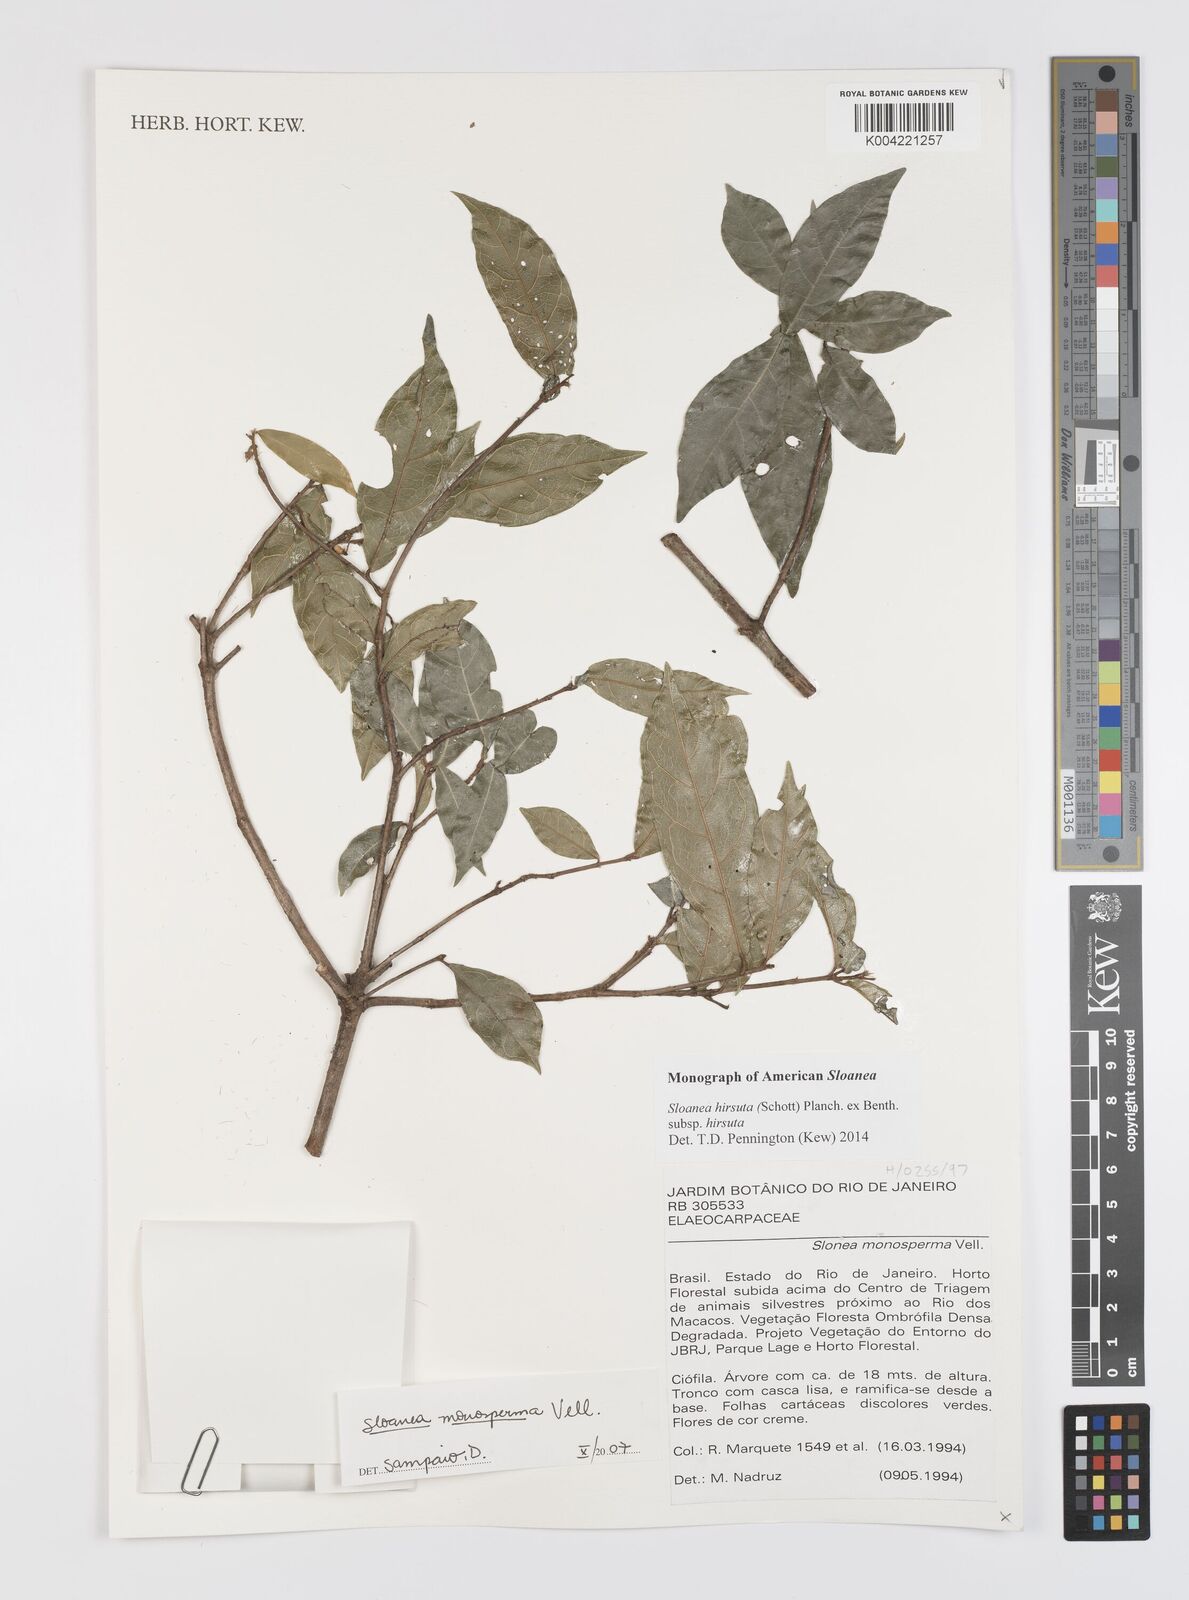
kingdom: Plantae
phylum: Tracheophyta
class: Magnoliopsida
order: Oxalidales
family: Elaeocarpaceae
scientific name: Elaeocarpaceae
